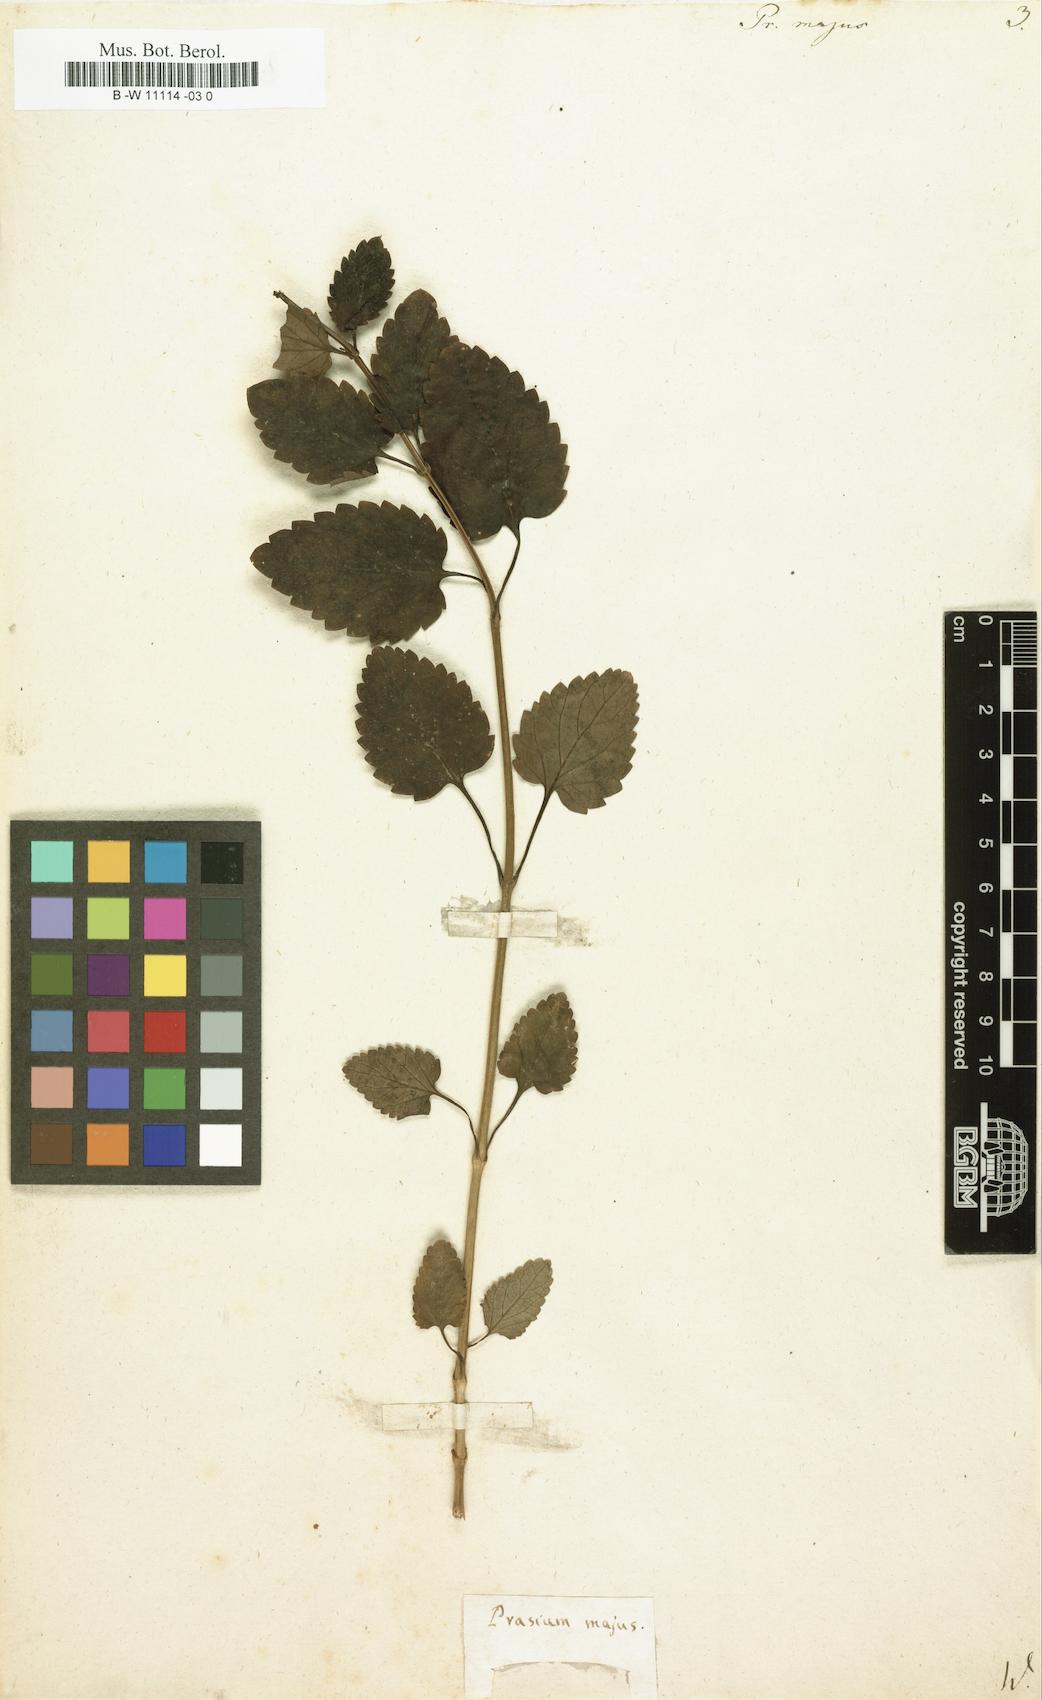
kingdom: Plantae
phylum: Tracheophyta
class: Magnoliopsida
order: Lamiales
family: Lamiaceae
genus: Prasium
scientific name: Prasium majus
